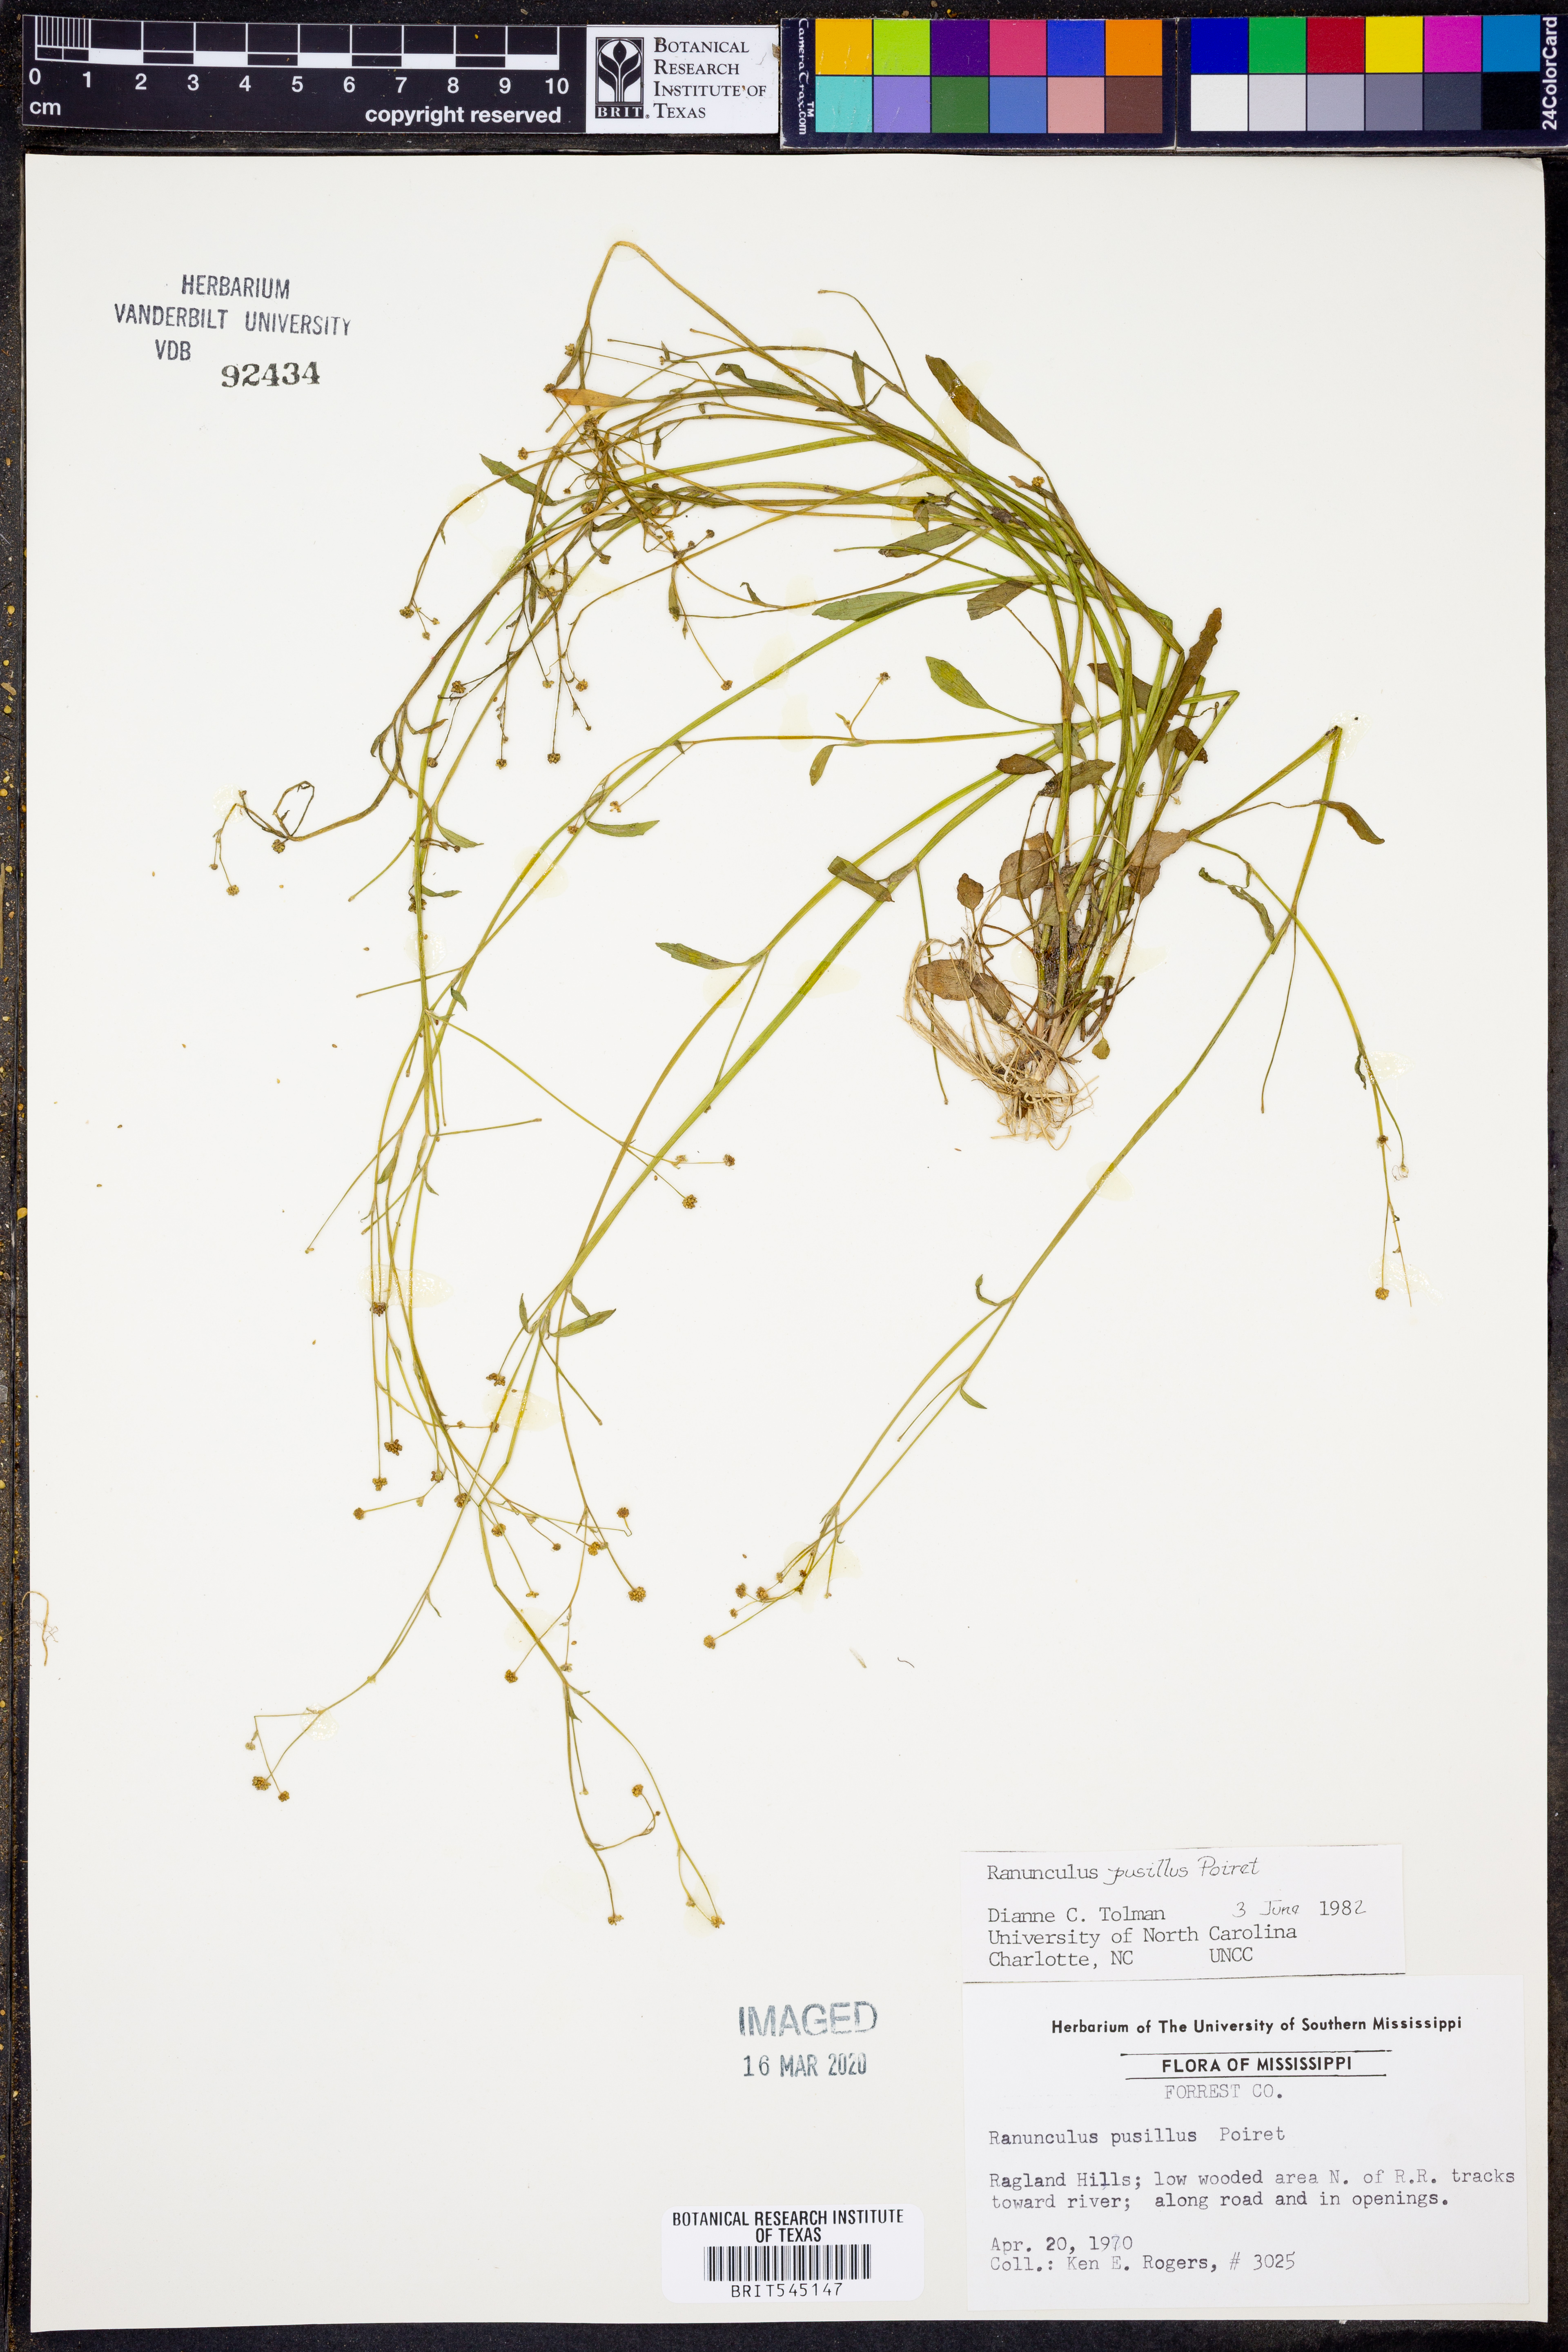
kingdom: Plantae
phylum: Tracheophyta
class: Magnoliopsida
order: Ranunculales
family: Ranunculaceae
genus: Ranunculus
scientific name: Ranunculus pusillus
